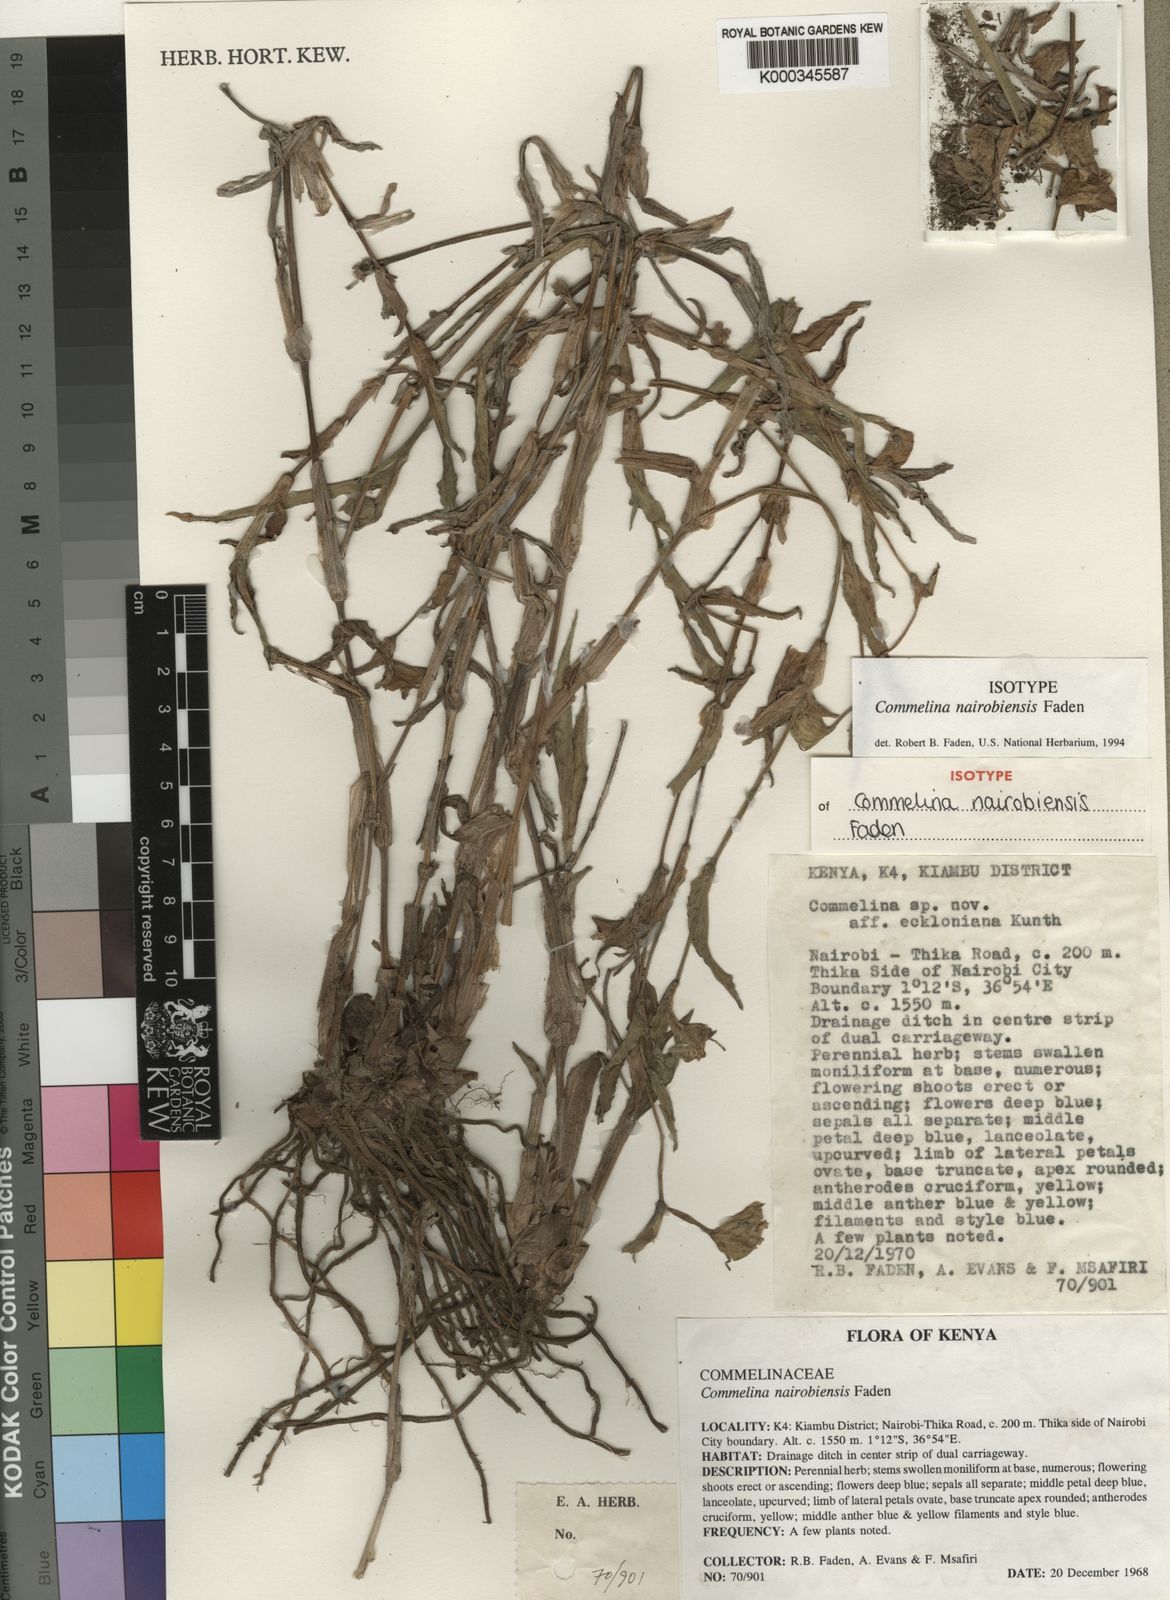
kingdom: Plantae
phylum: Tracheophyta
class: Liliopsida
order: Commelinales
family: Commelinaceae
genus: Commelina
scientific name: Commelina eckloniana
